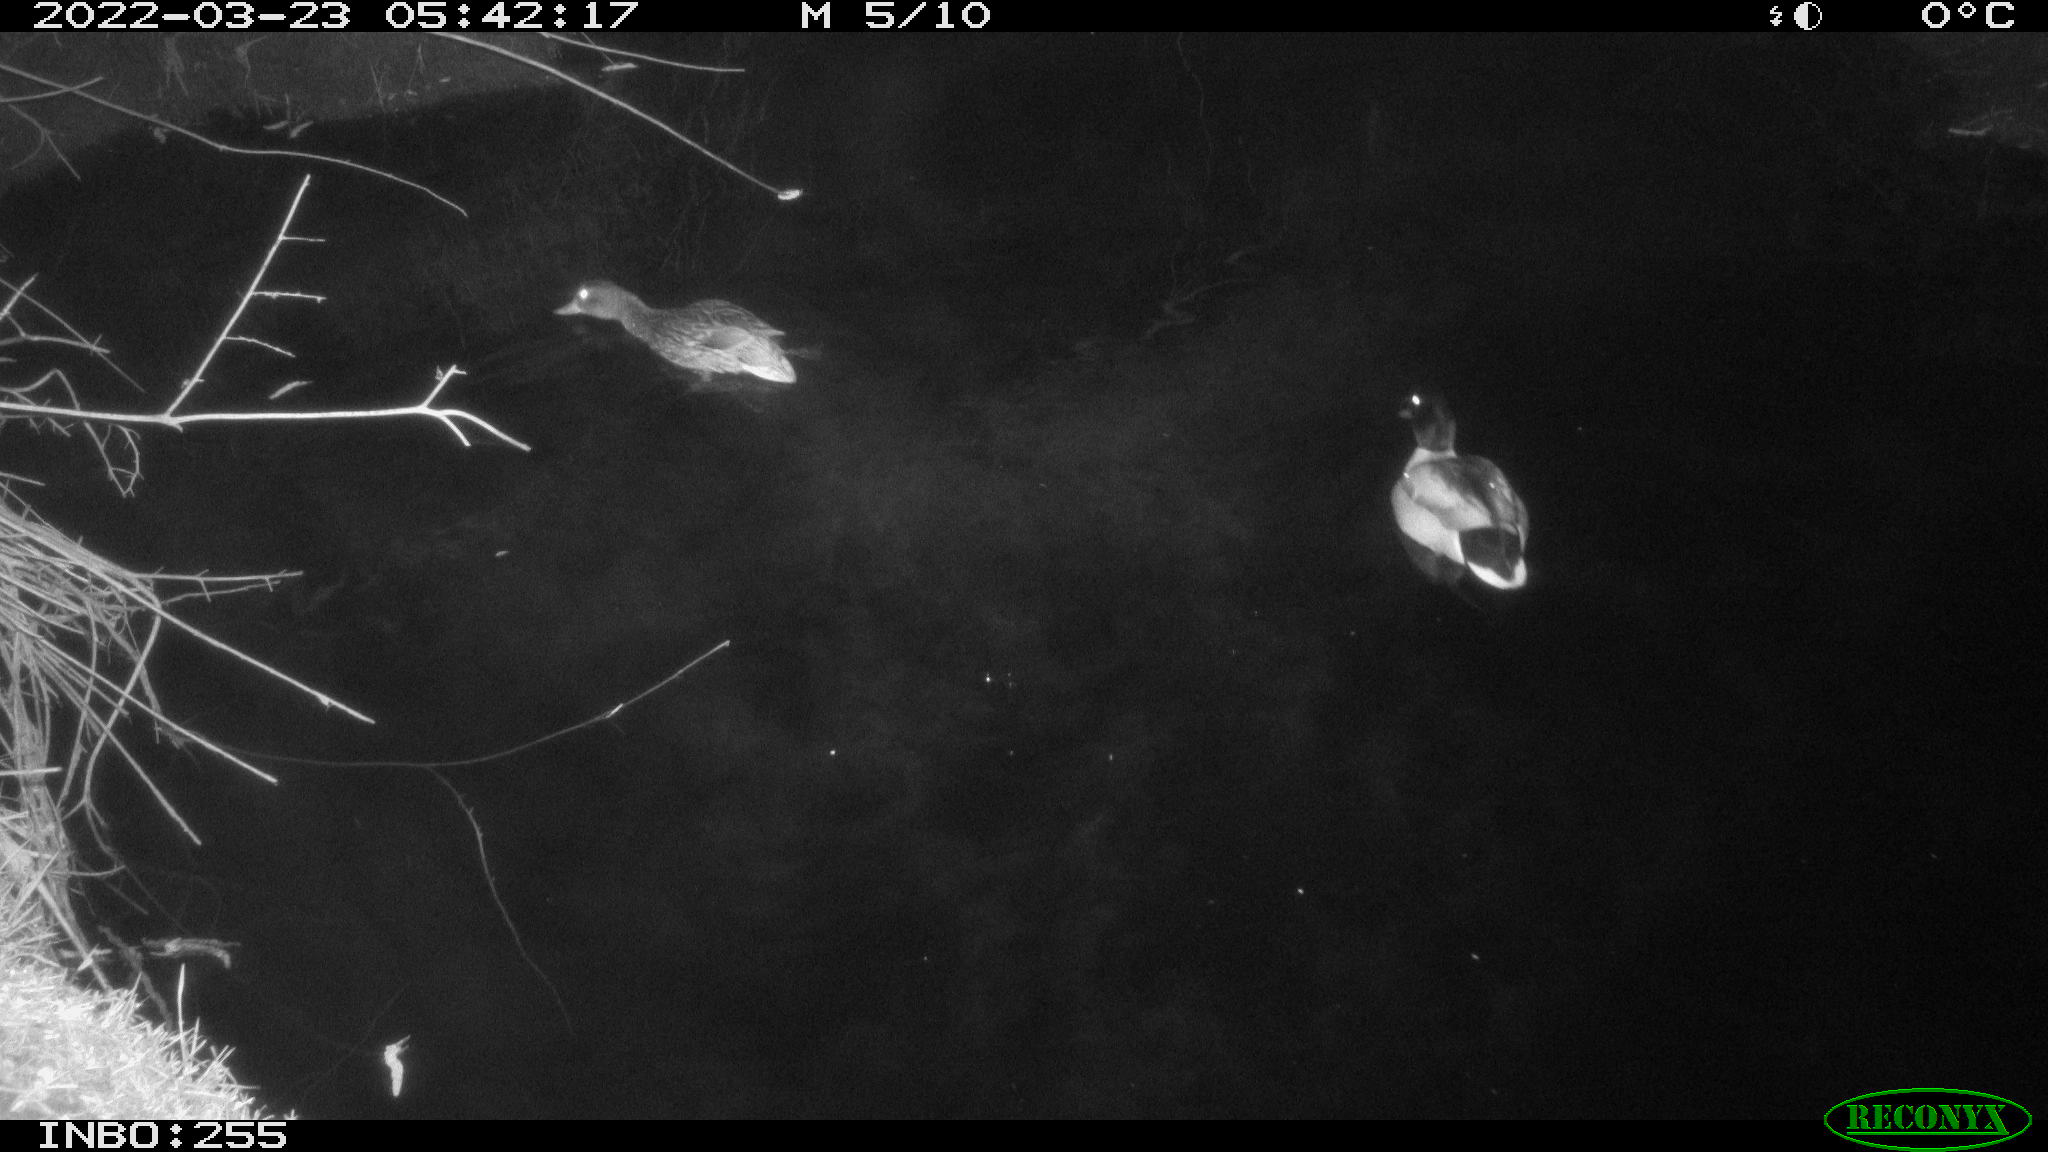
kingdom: Animalia
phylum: Chordata
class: Aves
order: Anseriformes
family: Anatidae
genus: Anas
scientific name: Anas platyrhynchos
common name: Mallard
